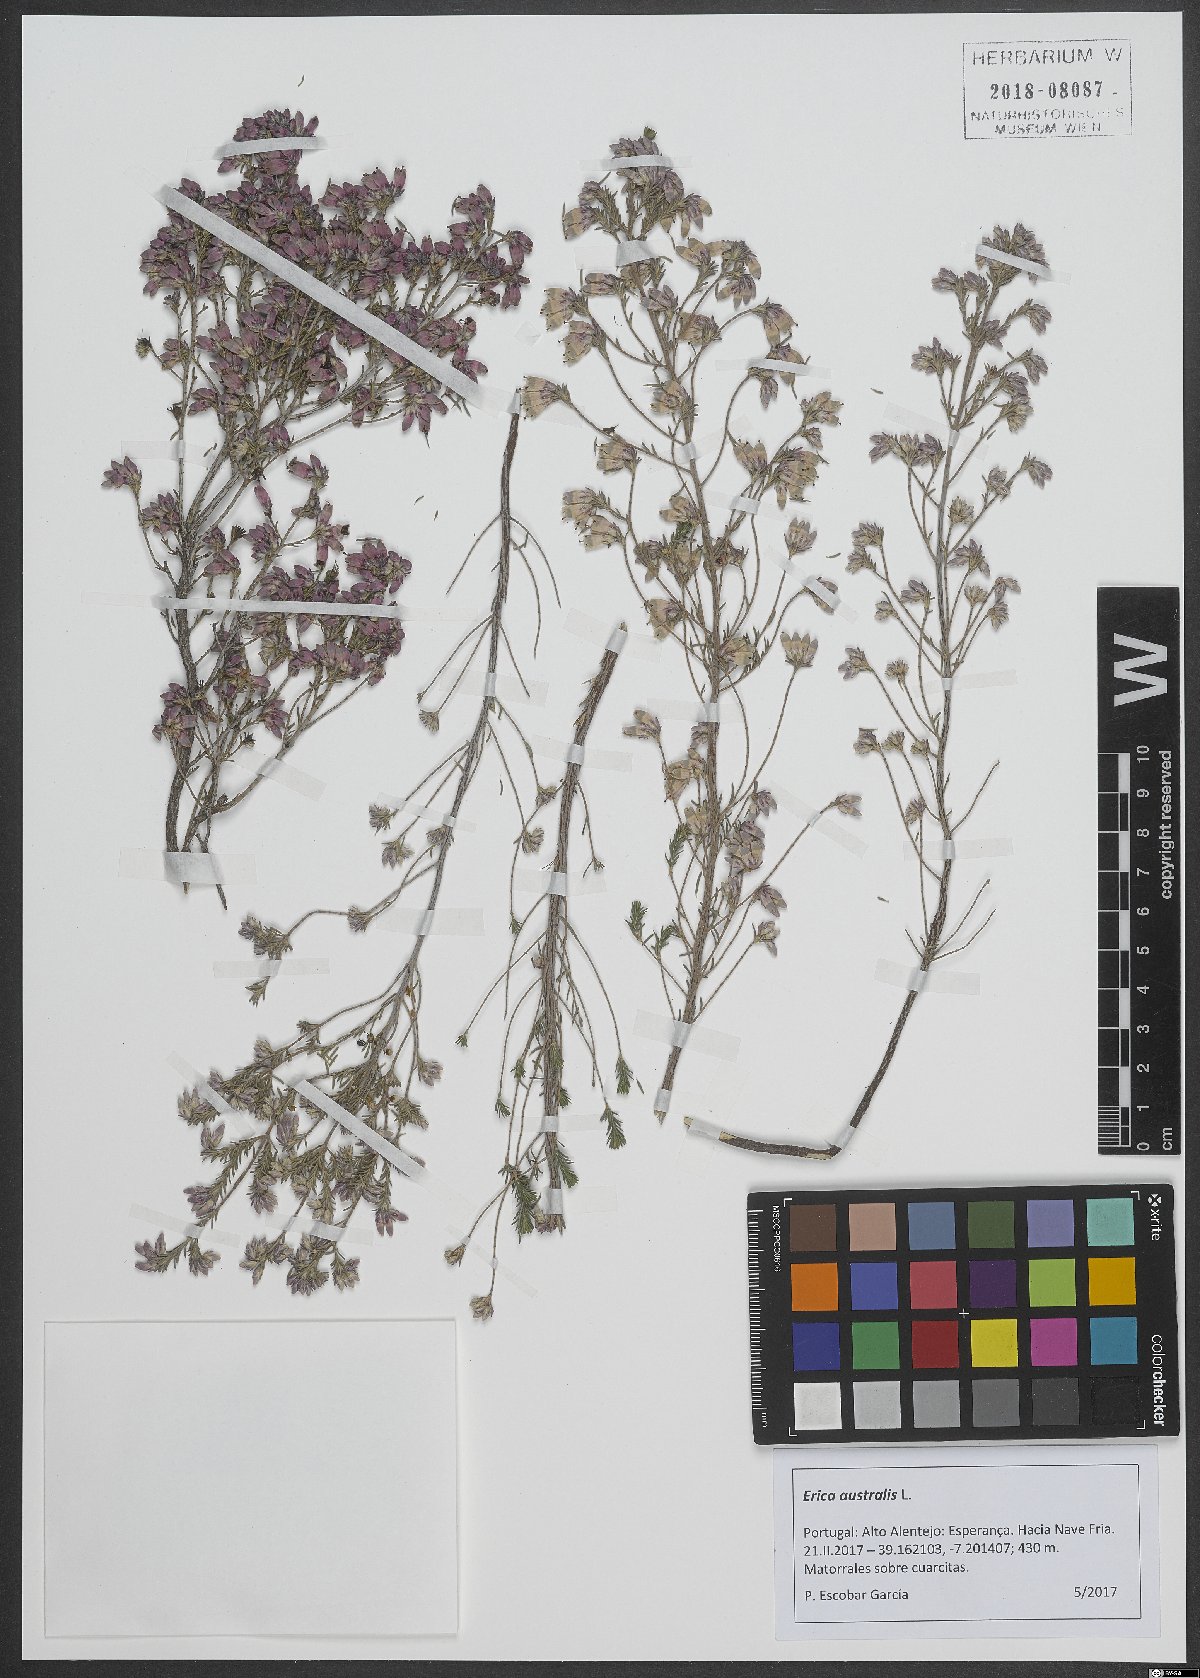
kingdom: Plantae
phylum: Tracheophyta
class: Magnoliopsida
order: Ericales
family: Ericaceae
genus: Erica
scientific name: Erica australis
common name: Spanish heath
